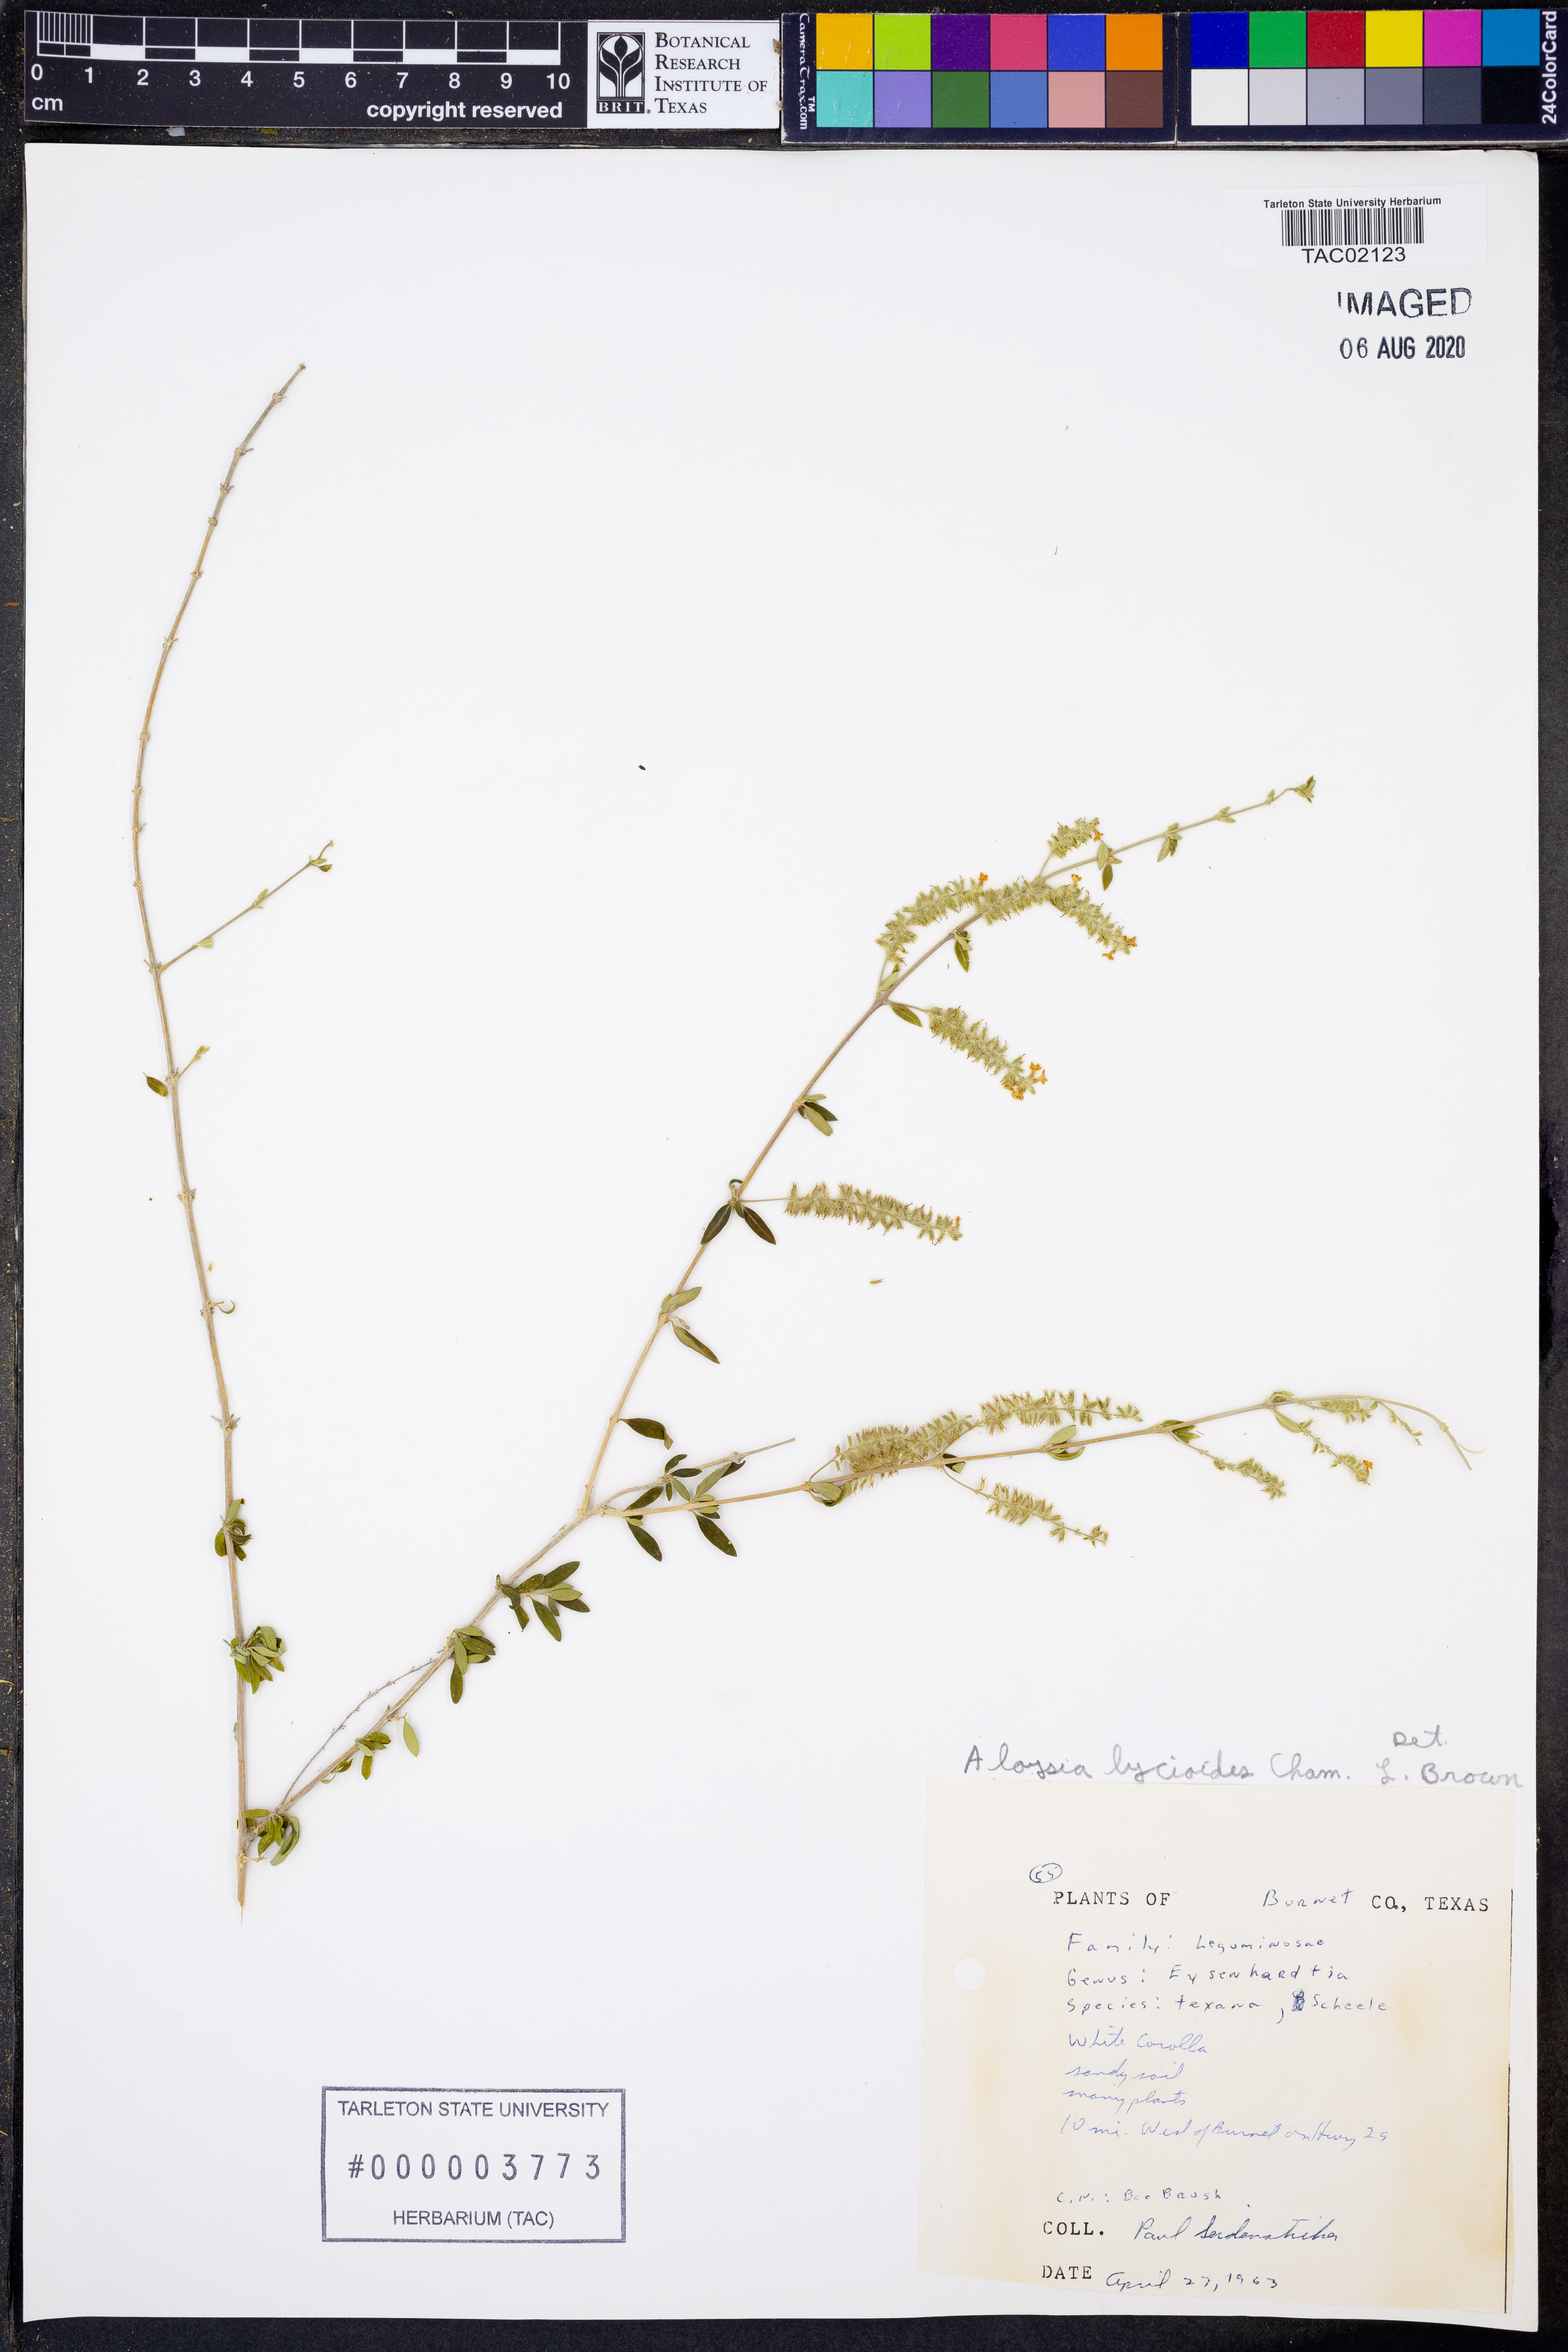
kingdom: Plantae
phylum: Tracheophyta
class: Magnoliopsida
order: Lamiales
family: Verbenaceae
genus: Aloysia
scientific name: Aloysia gratissima
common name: Common bee-brush
